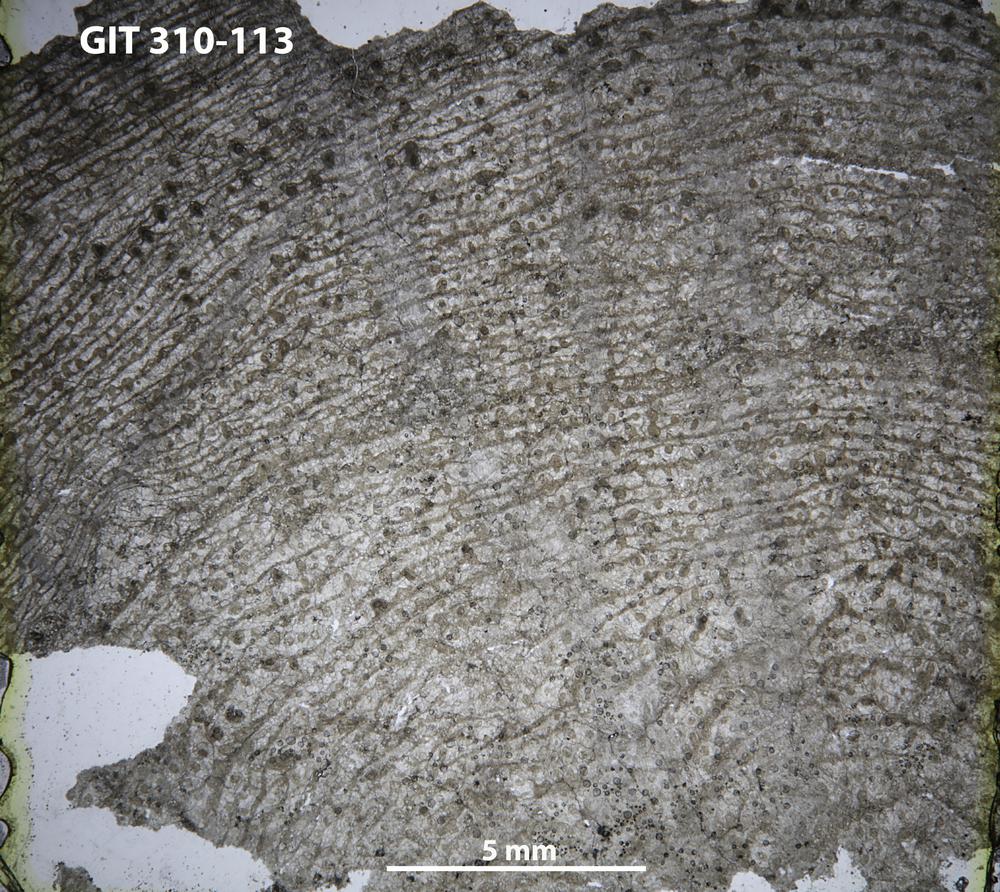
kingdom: Animalia
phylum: Porifera
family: Labechiidae
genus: Labechiella
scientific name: Labechiella regularis
